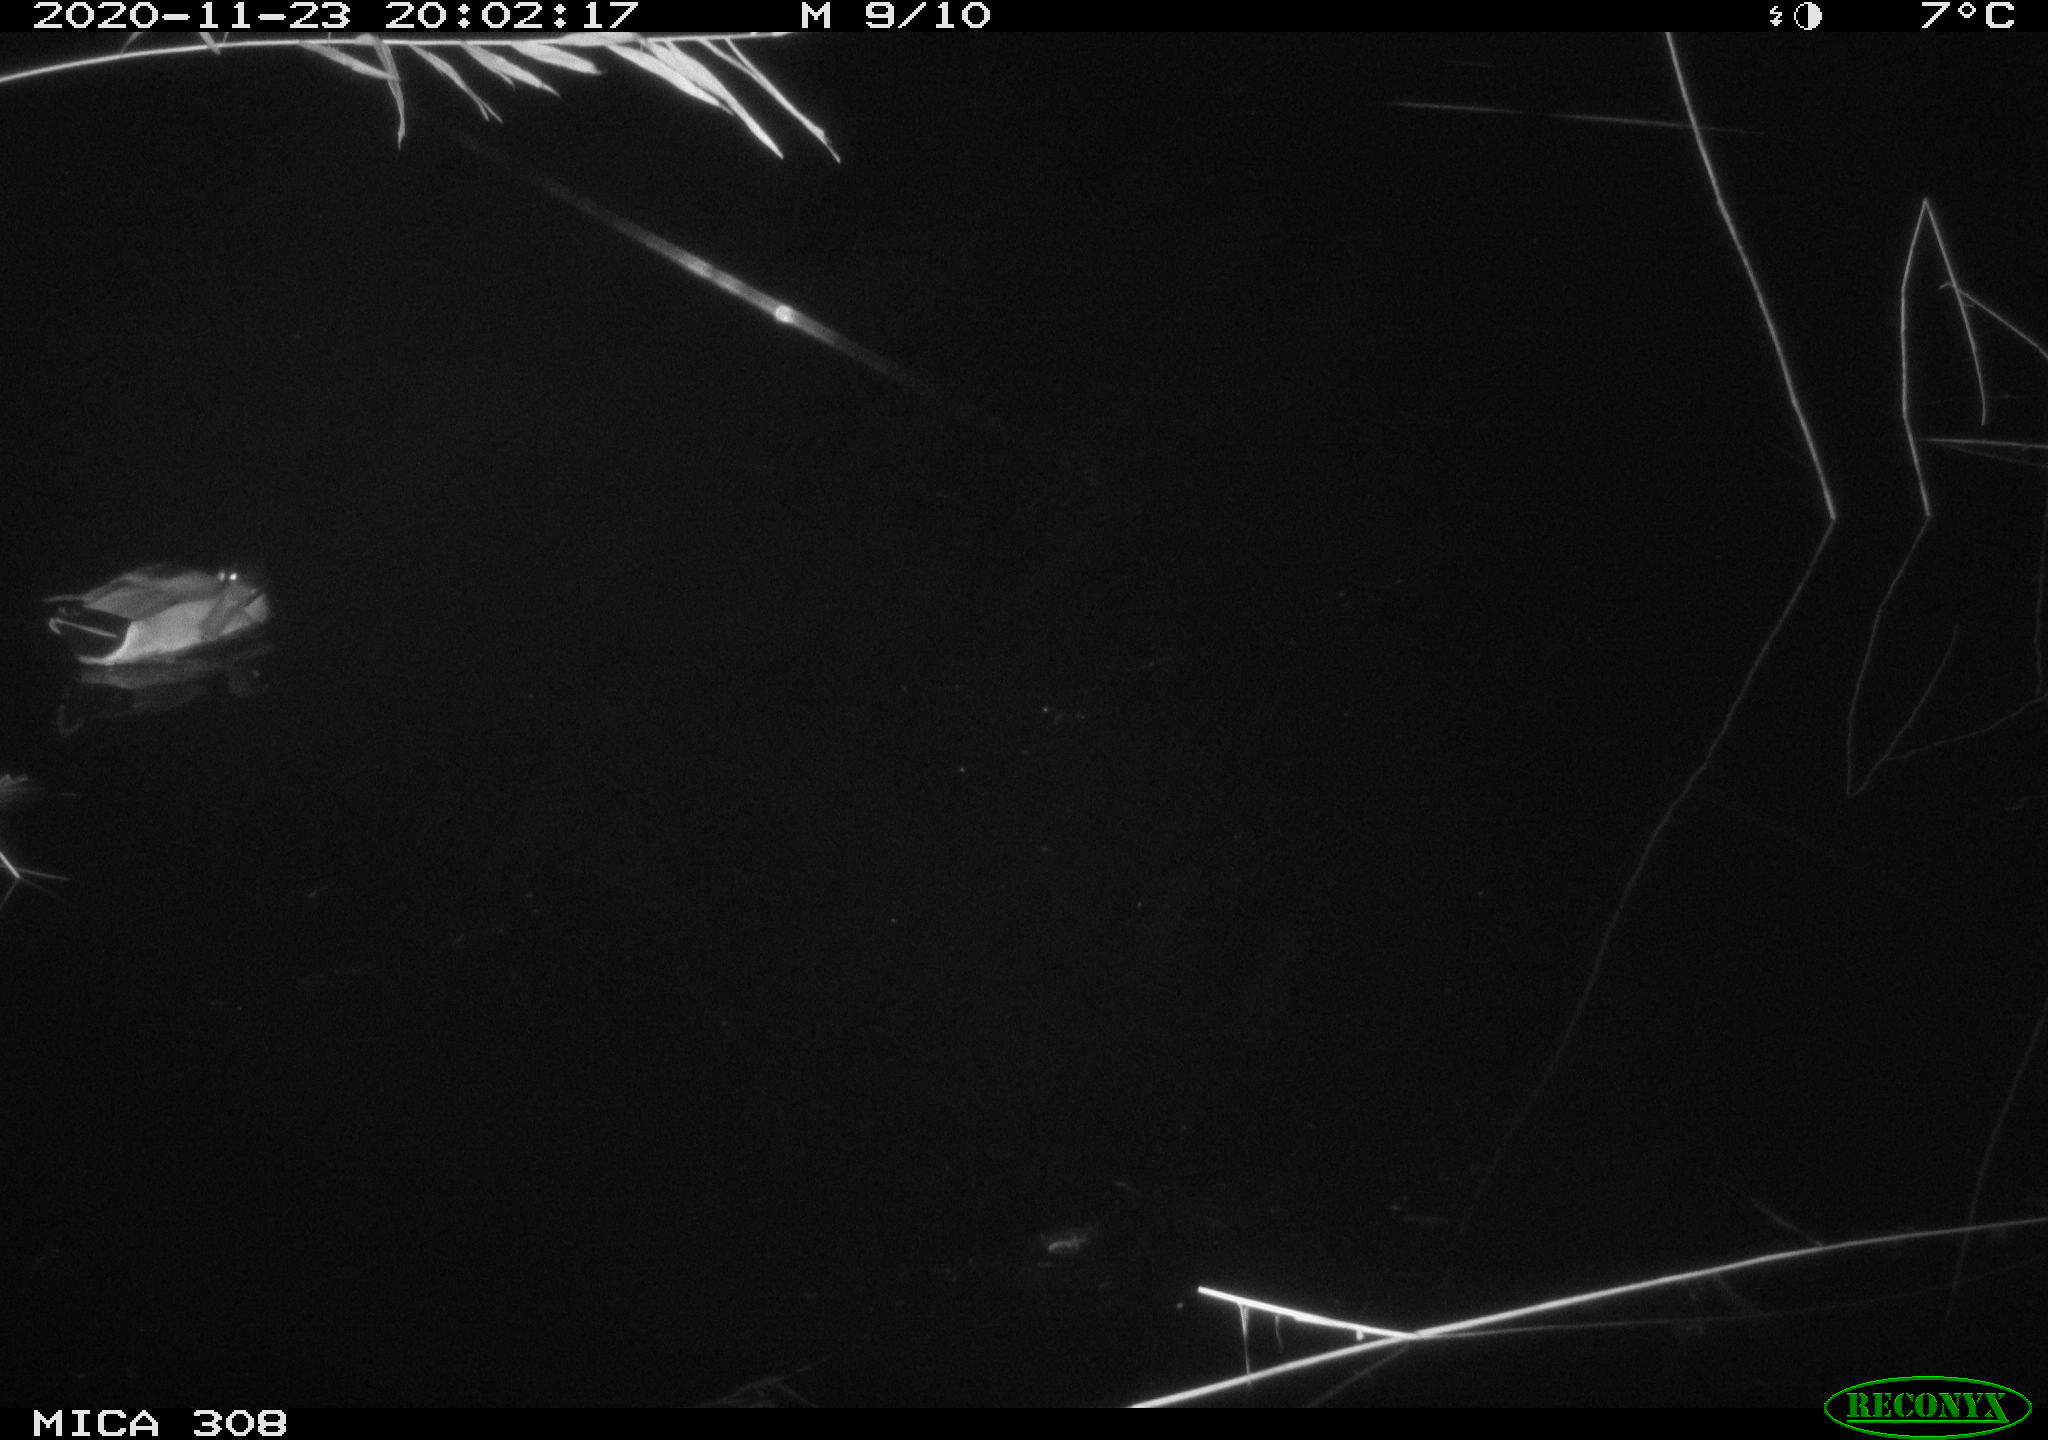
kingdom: Animalia
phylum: Chordata
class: Aves
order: Anseriformes
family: Anatidae
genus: Anas
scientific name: Anas platyrhynchos
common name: Mallard
